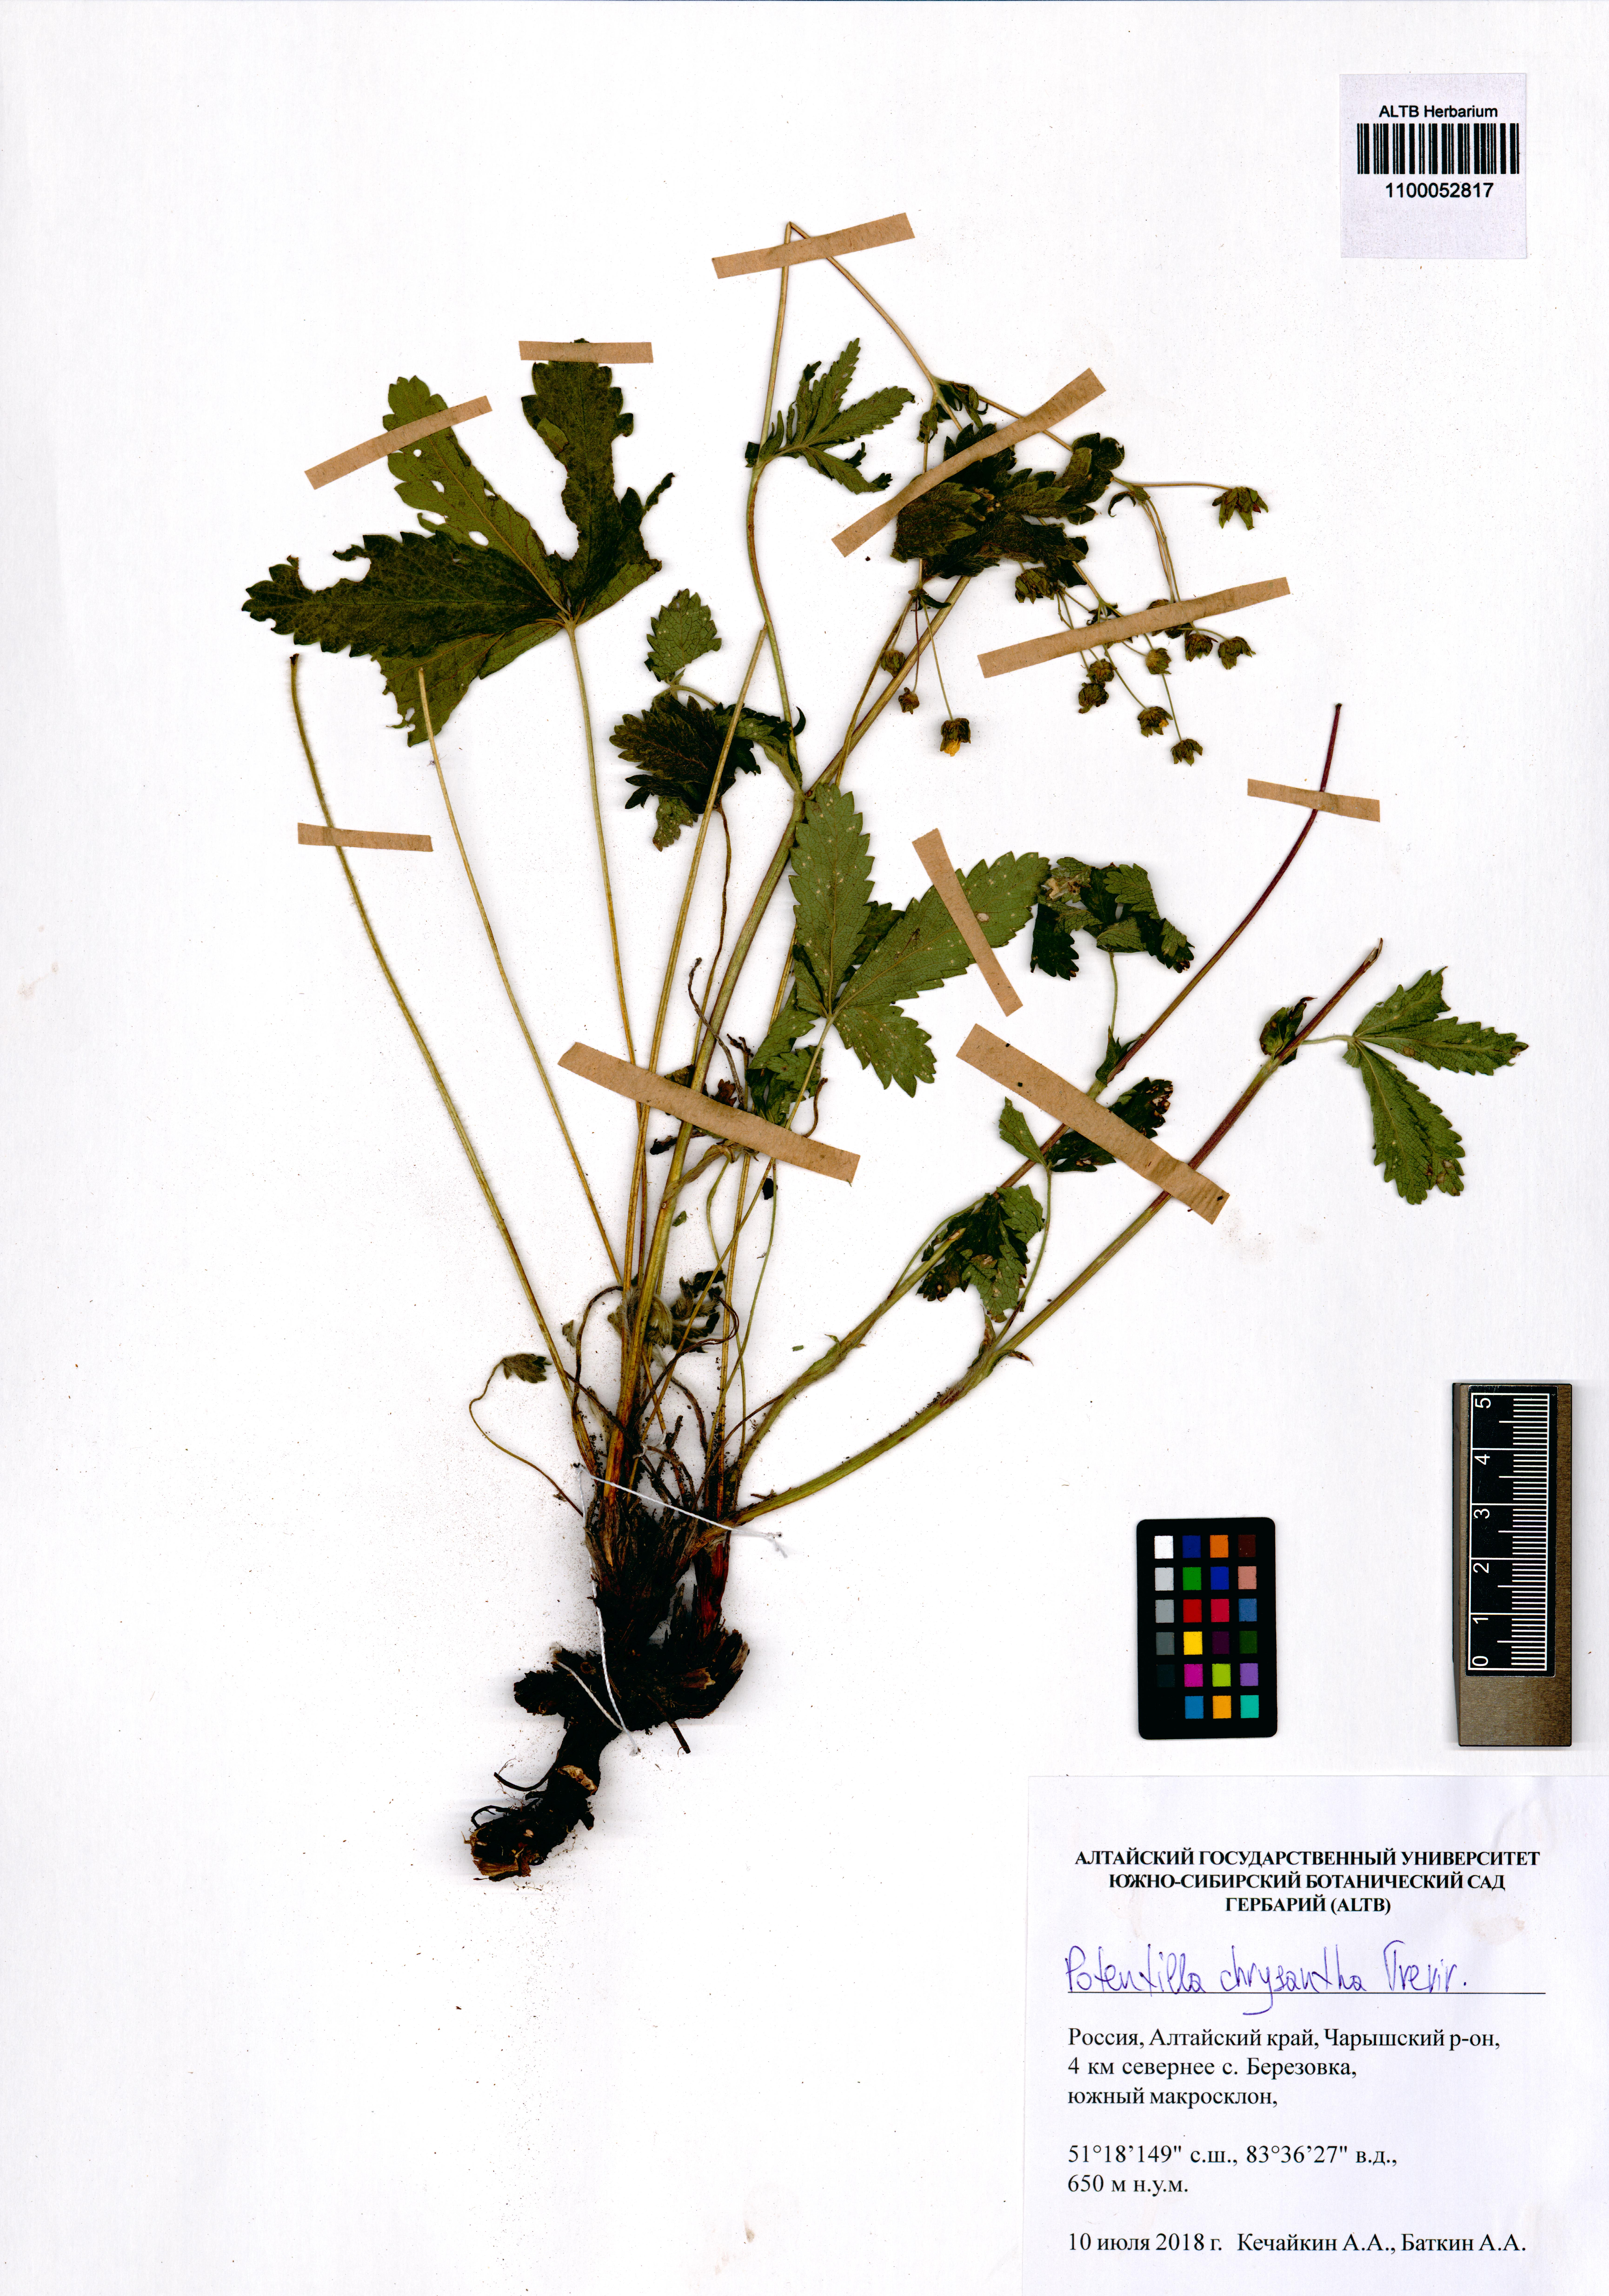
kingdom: Plantae
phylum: Tracheophyta
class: Magnoliopsida
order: Rosales
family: Rosaceae
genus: Potentilla
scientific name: Potentilla chrysantha
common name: Thuringian cinquefoil
